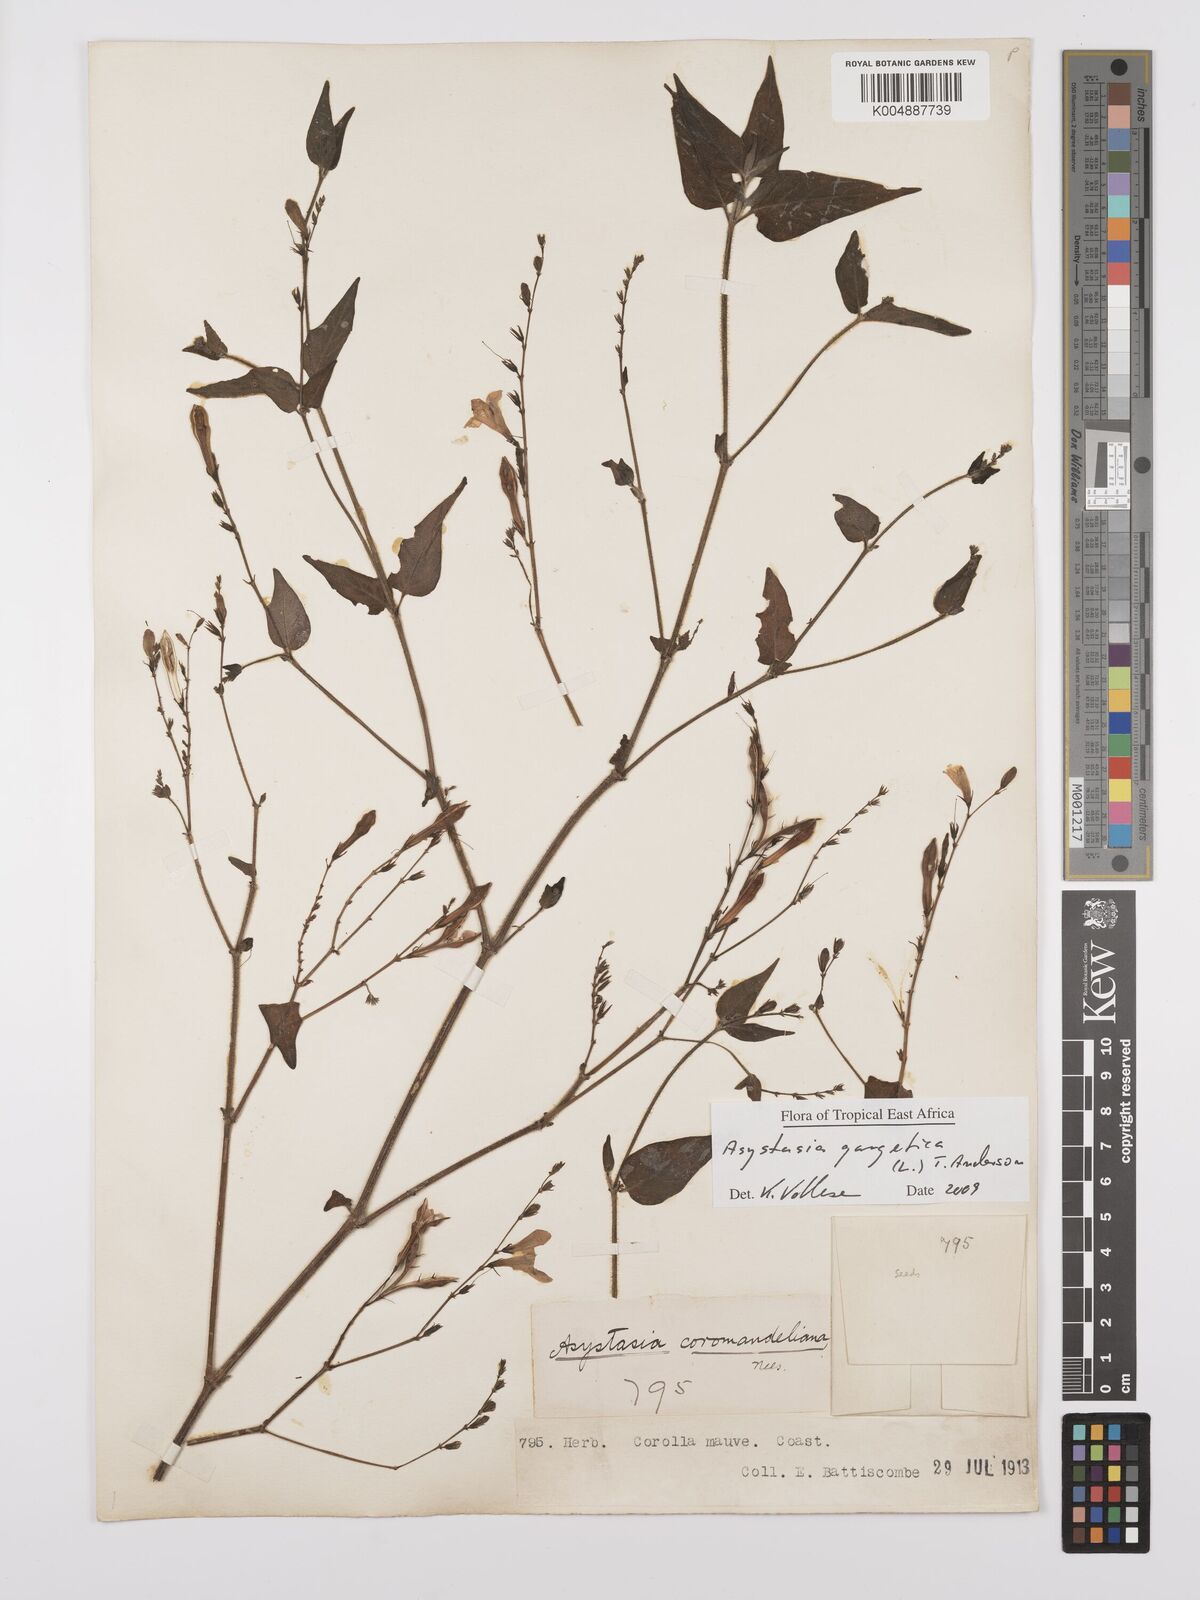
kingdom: Plantae
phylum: Tracheophyta
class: Magnoliopsida
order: Lamiales
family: Acanthaceae
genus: Asystasia
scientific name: Asystasia gangetica
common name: Chinese violet
